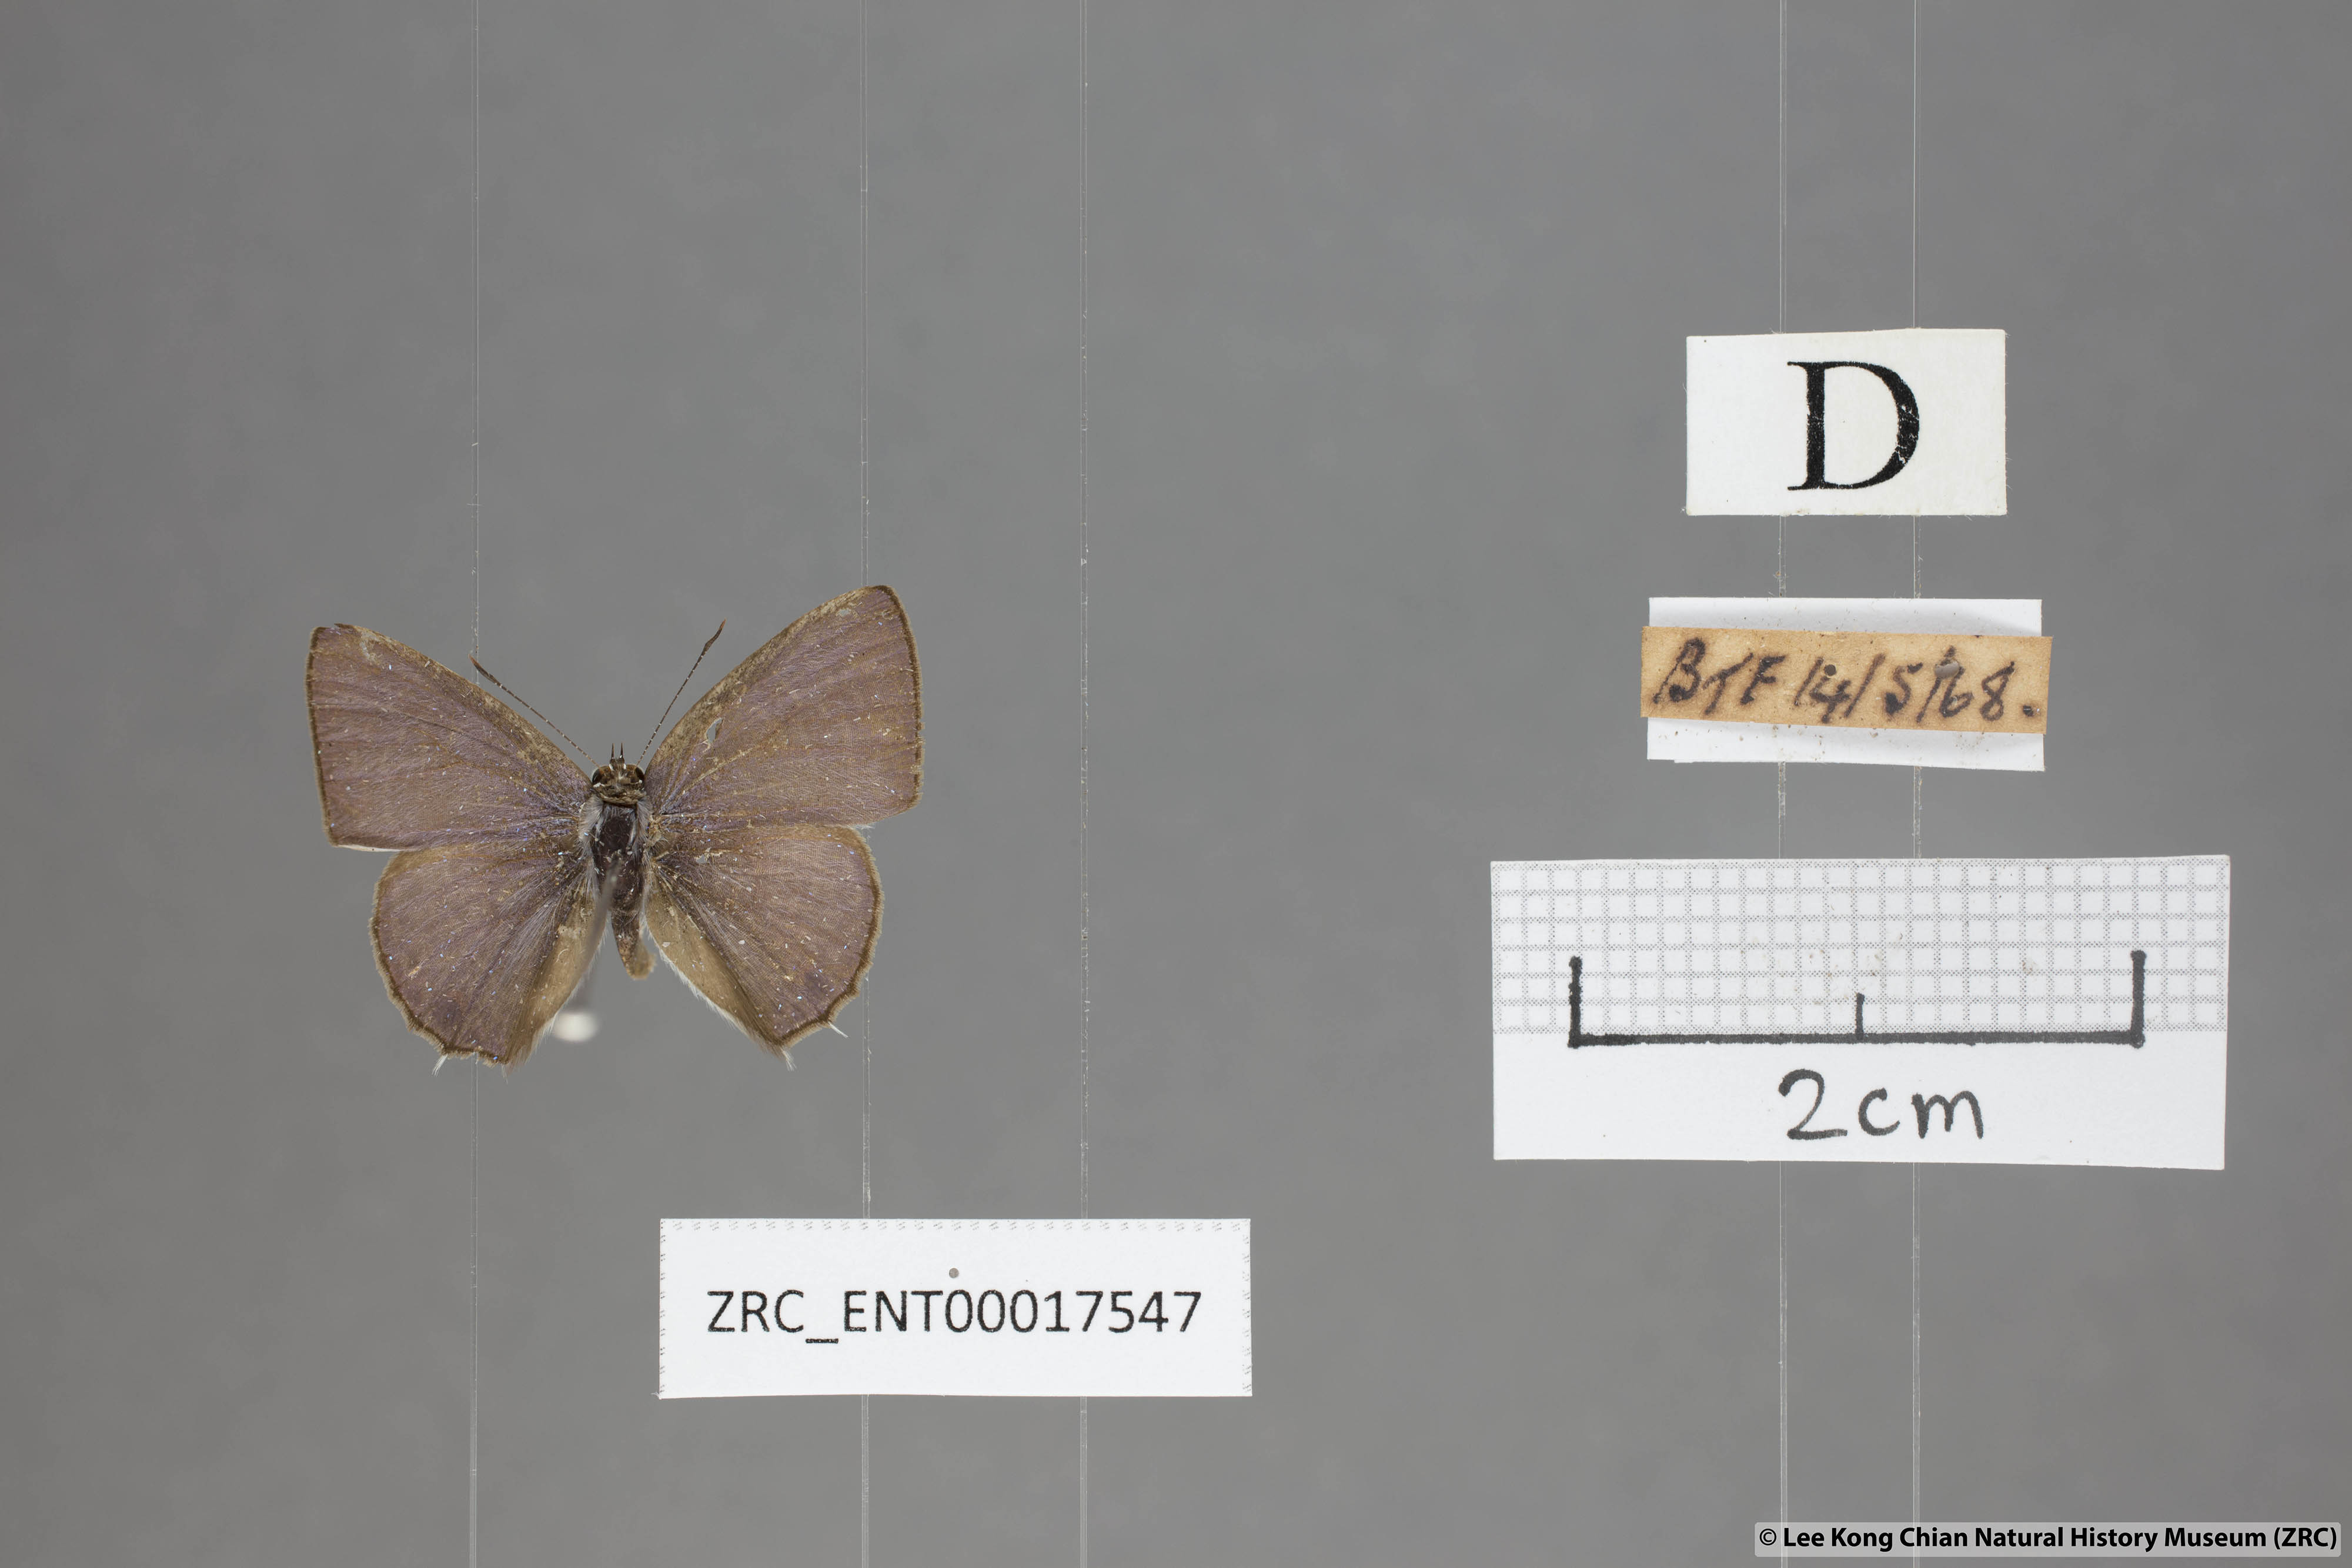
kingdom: Animalia
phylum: Arthropoda
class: Insecta
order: Lepidoptera
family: Lycaenidae
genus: Anthene
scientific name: Anthene lycaenoides
